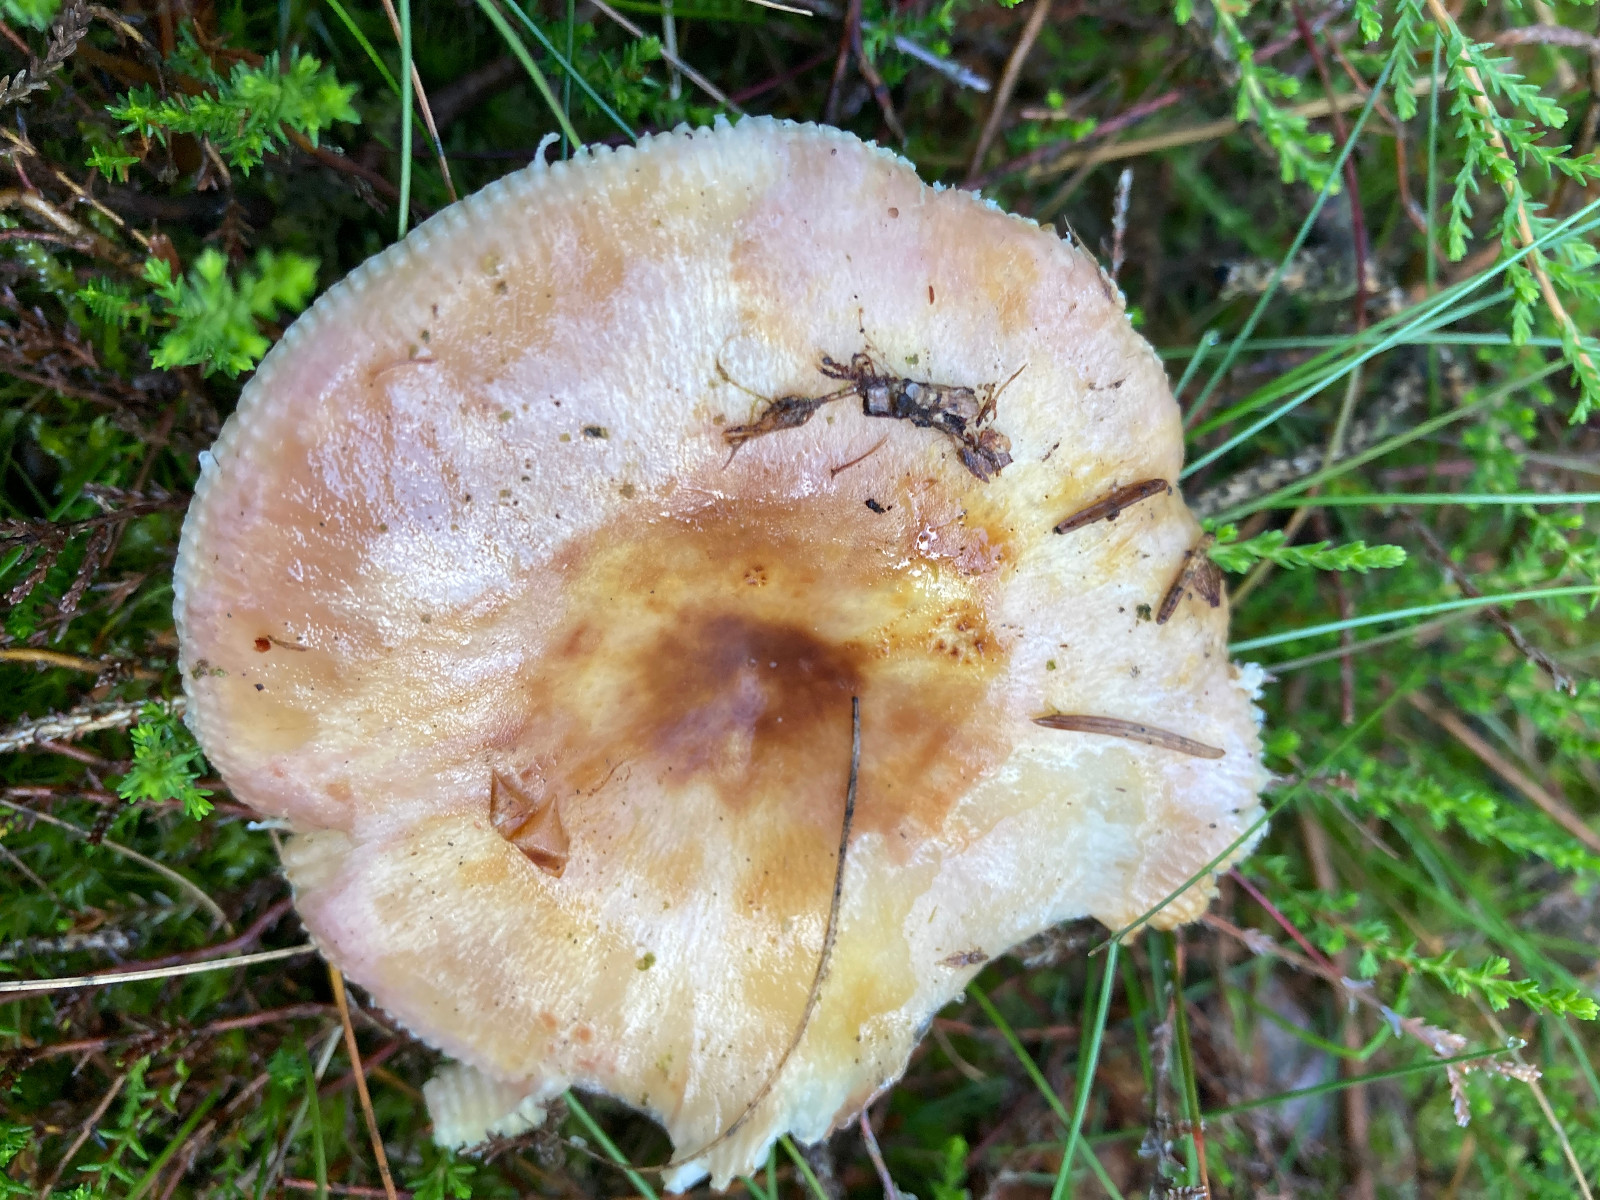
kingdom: Fungi
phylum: Basidiomycota
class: Agaricomycetes
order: Russulales
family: Russulaceae
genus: Russula
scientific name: Russula
